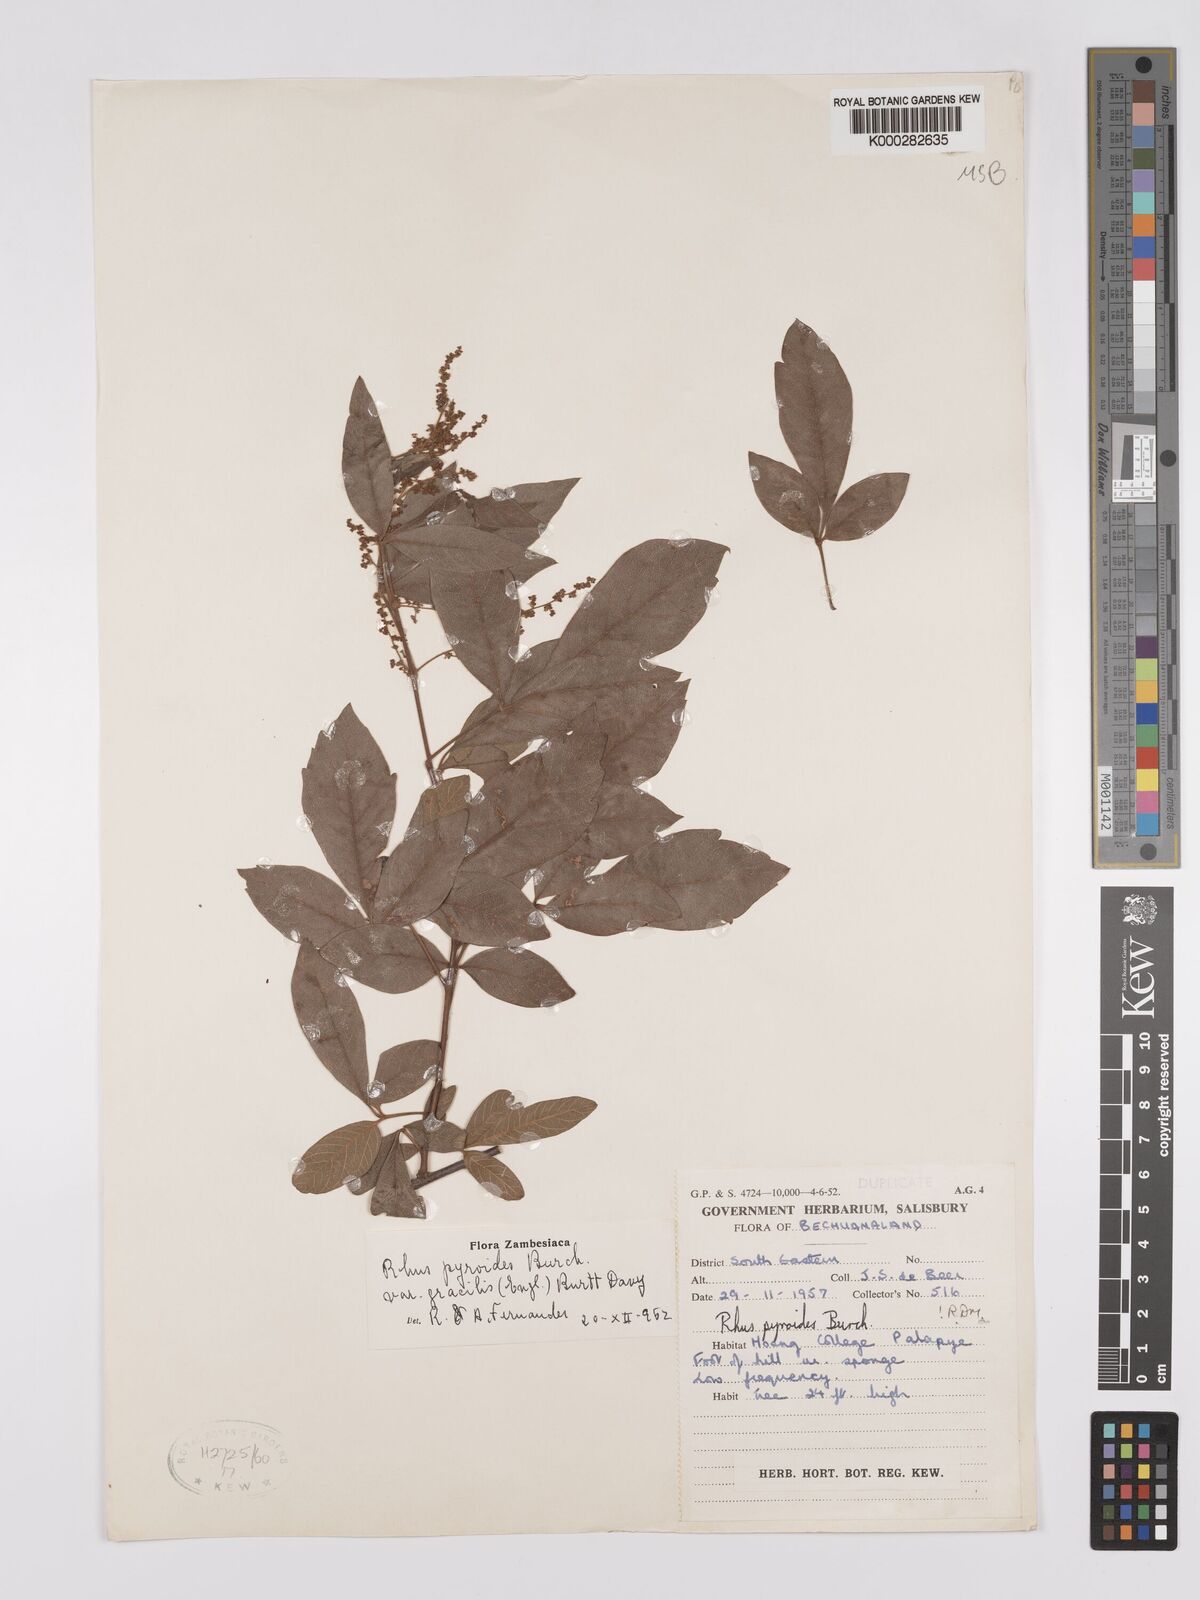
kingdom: Plantae
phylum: Tracheophyta
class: Magnoliopsida
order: Sapindales
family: Anacardiaceae
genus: Searsia
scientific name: Searsia pyroides
